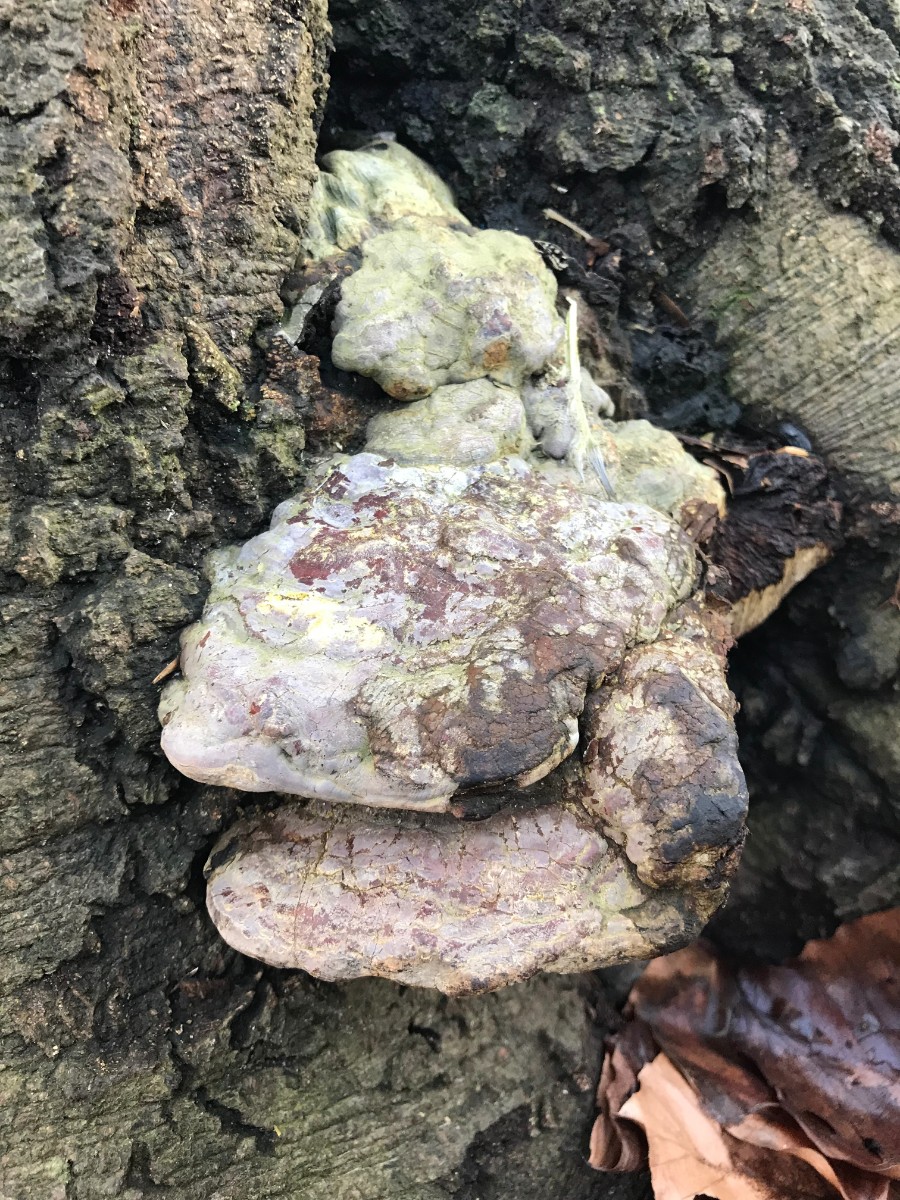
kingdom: Fungi
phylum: Basidiomycota
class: Agaricomycetes
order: Polyporales
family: Polyporaceae
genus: Ganoderma
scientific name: Ganoderma pfeifferi
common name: kobberrød lakporesvamp
